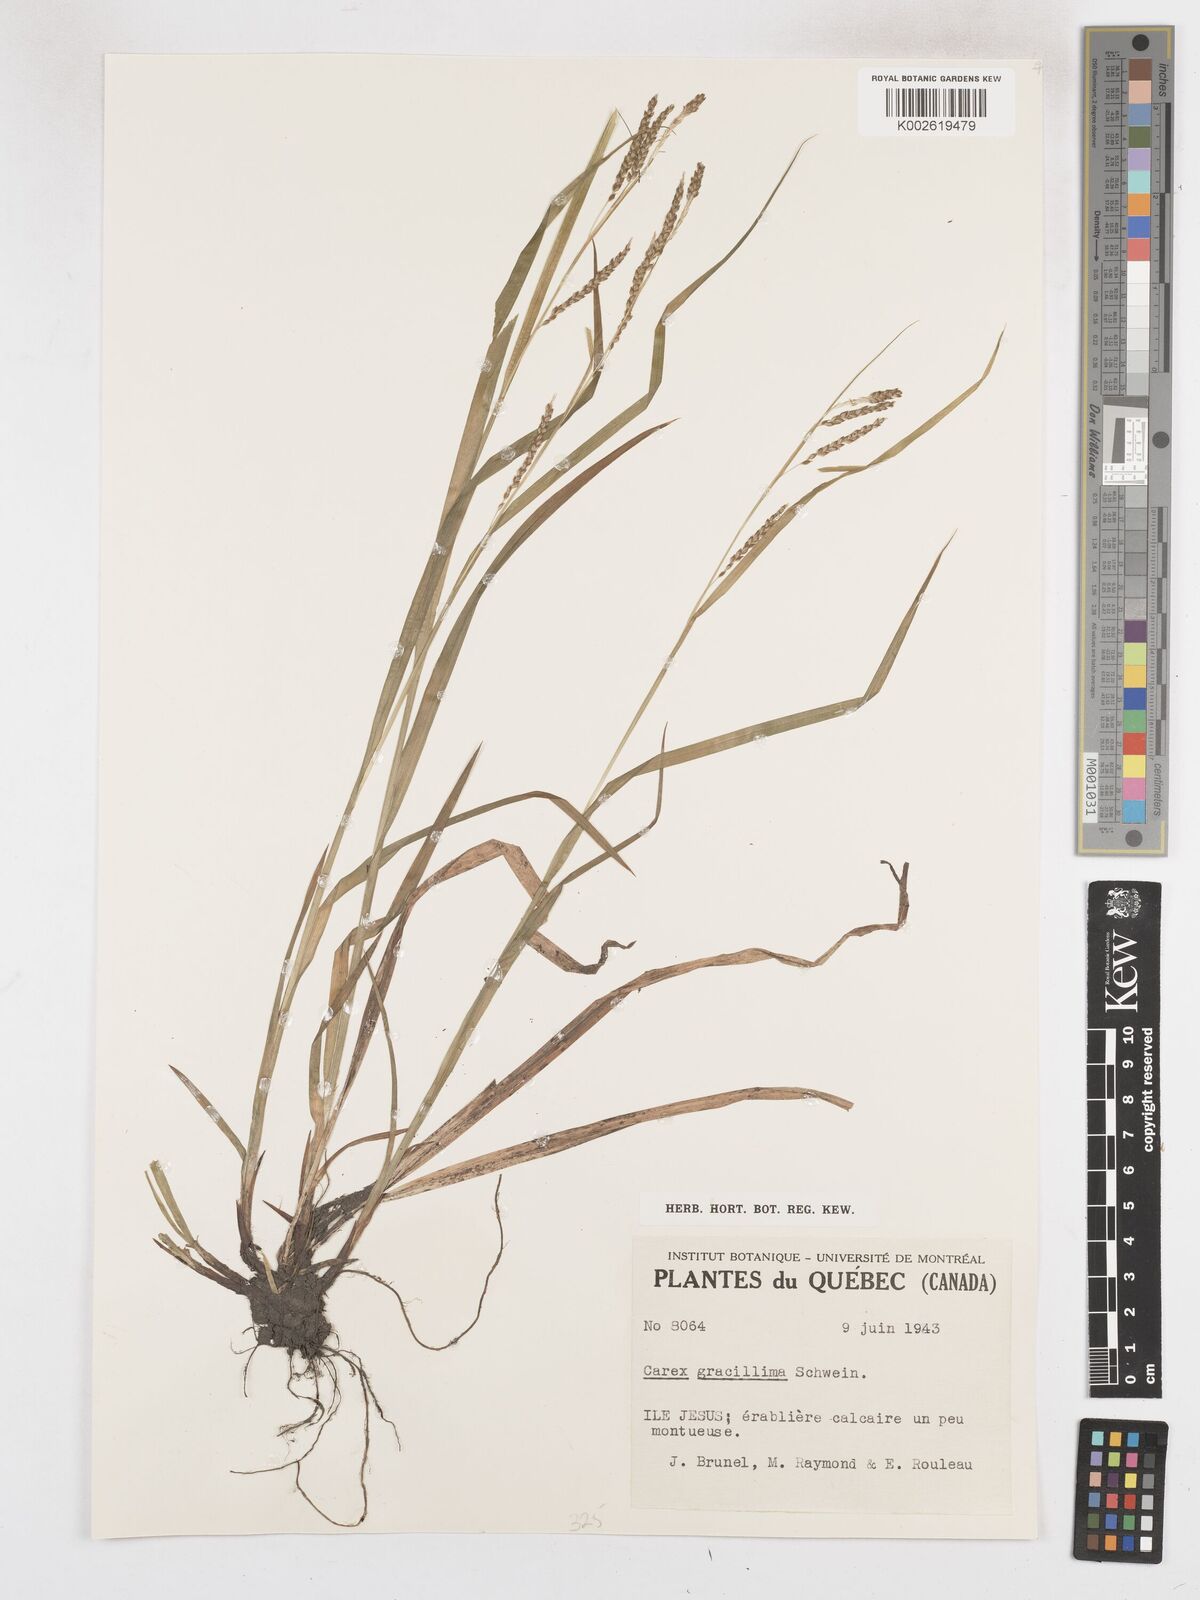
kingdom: Plantae
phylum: Tracheophyta
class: Liliopsida
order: Poales
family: Cyperaceae
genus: Carex
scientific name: Carex gracillima
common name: Graceful sedge
